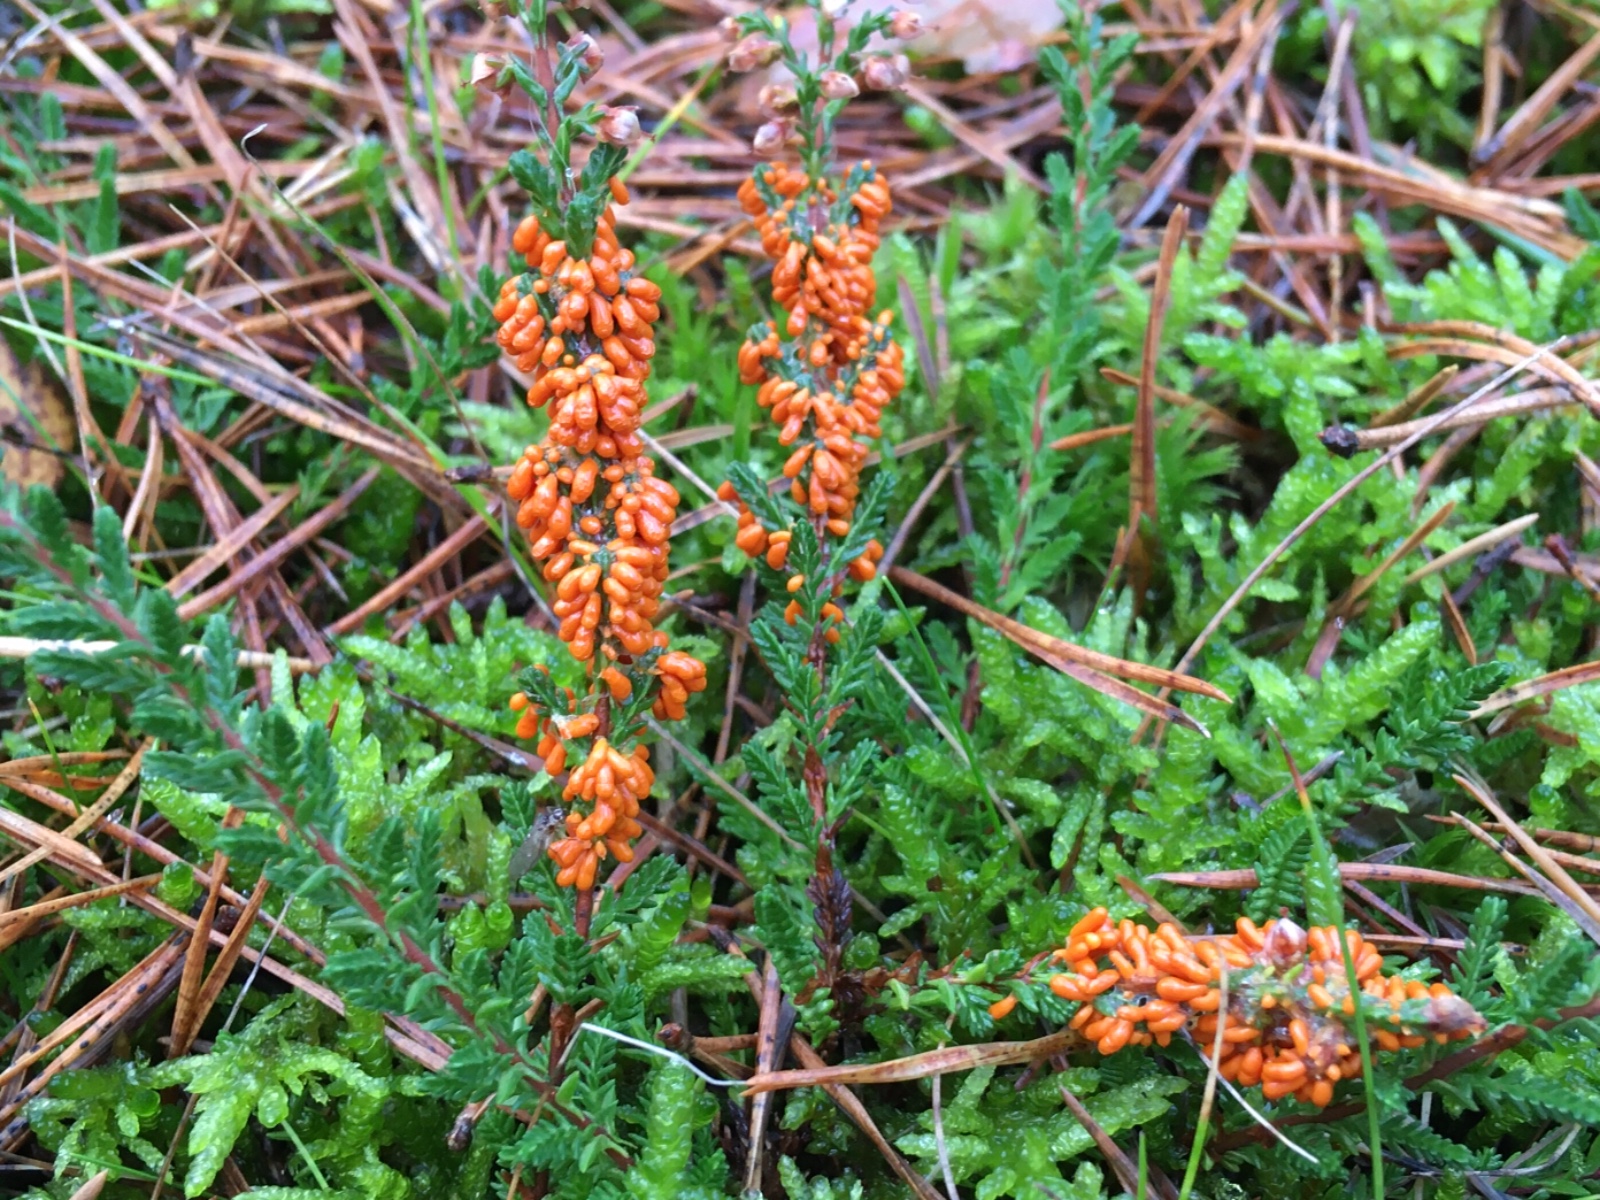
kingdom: Protozoa
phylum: Mycetozoa
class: Myxomycetes
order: Physarales
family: Physaraceae
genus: Leocarpus
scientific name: Leocarpus fragilis
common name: poleret glatfrø
